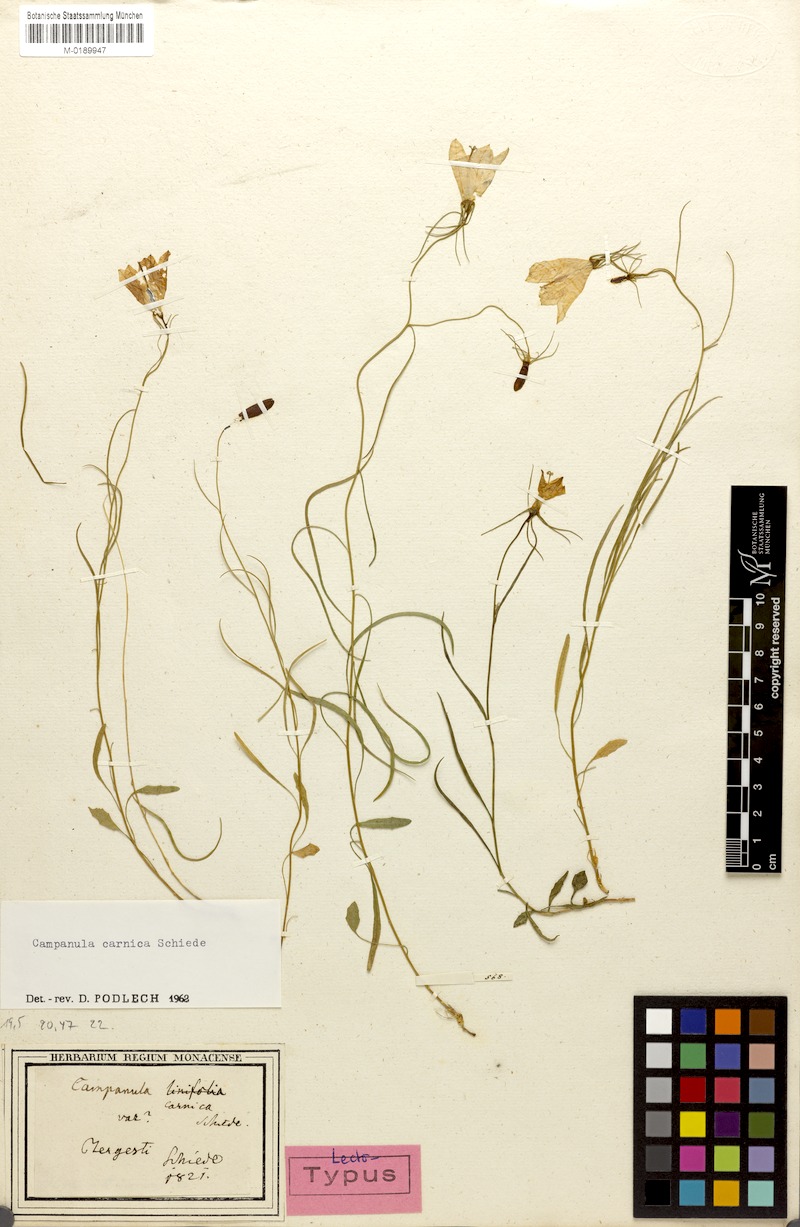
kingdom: Plantae
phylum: Tracheophyta
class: Magnoliopsida
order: Asterales
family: Campanulaceae
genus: Campanula
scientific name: Campanula carnica
